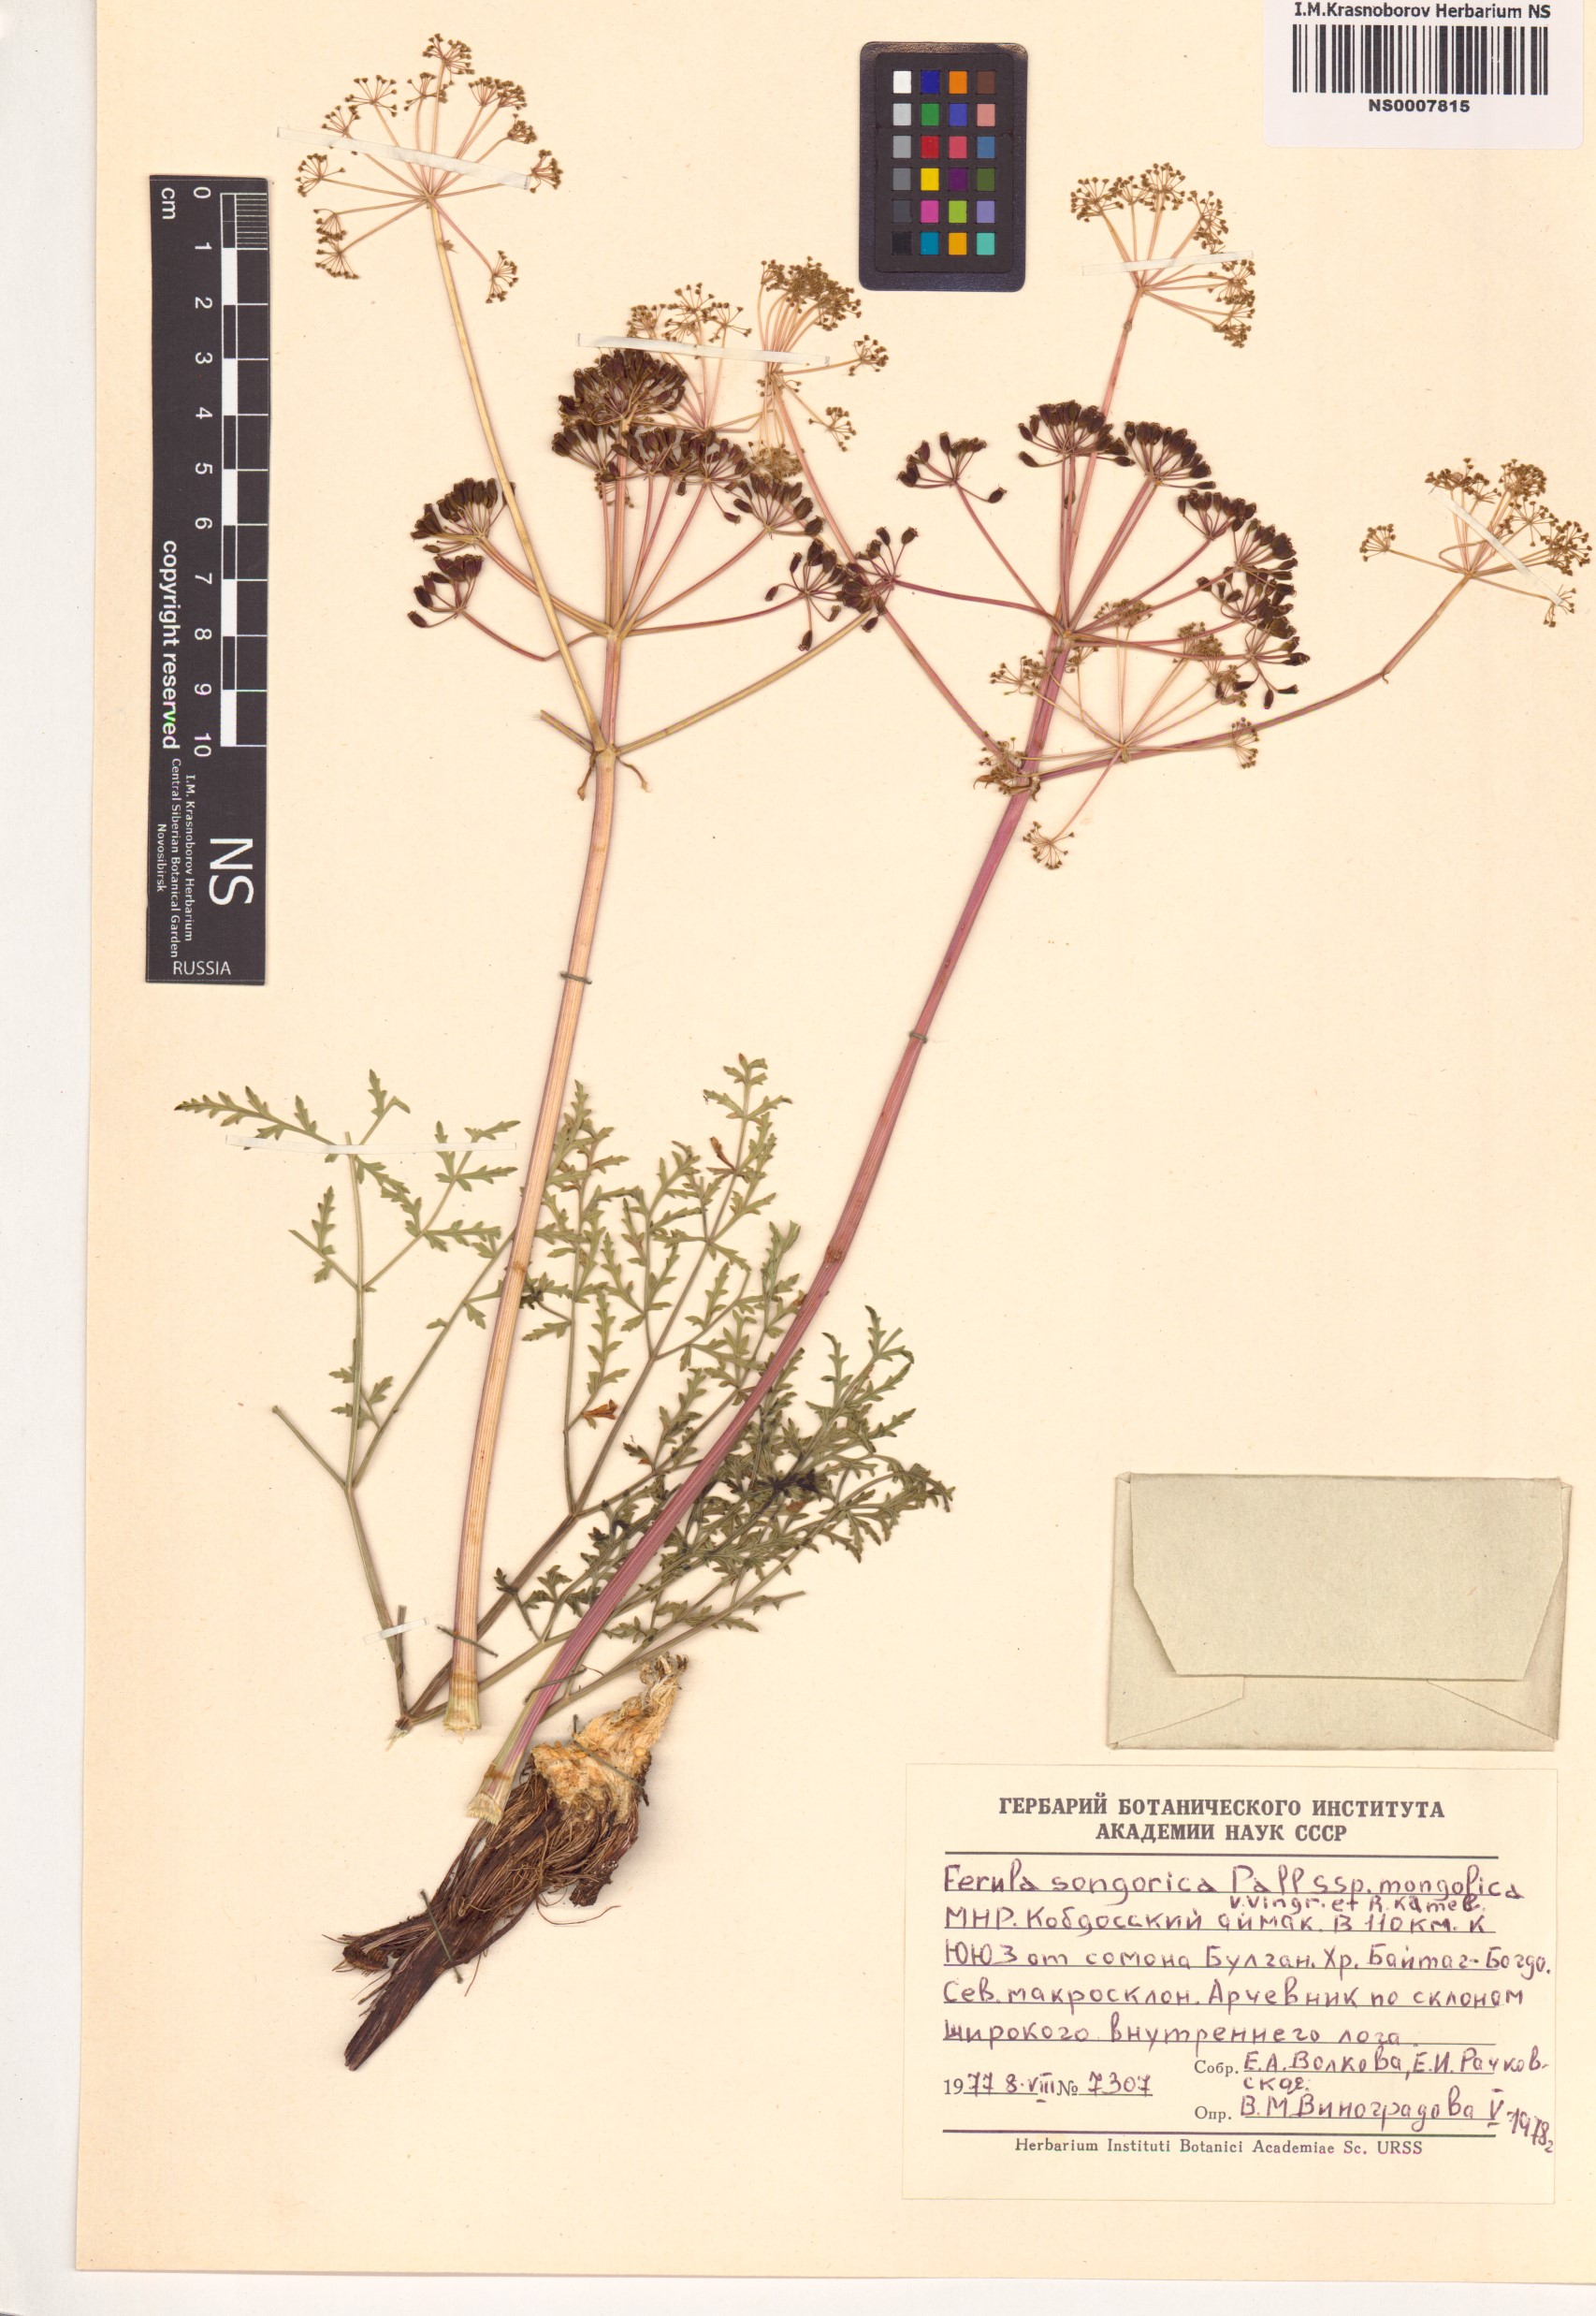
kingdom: Plantae
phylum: Tracheophyta
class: Magnoliopsida
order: Apiales
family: Apiaceae
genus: Ferula
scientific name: Ferula mongolica
